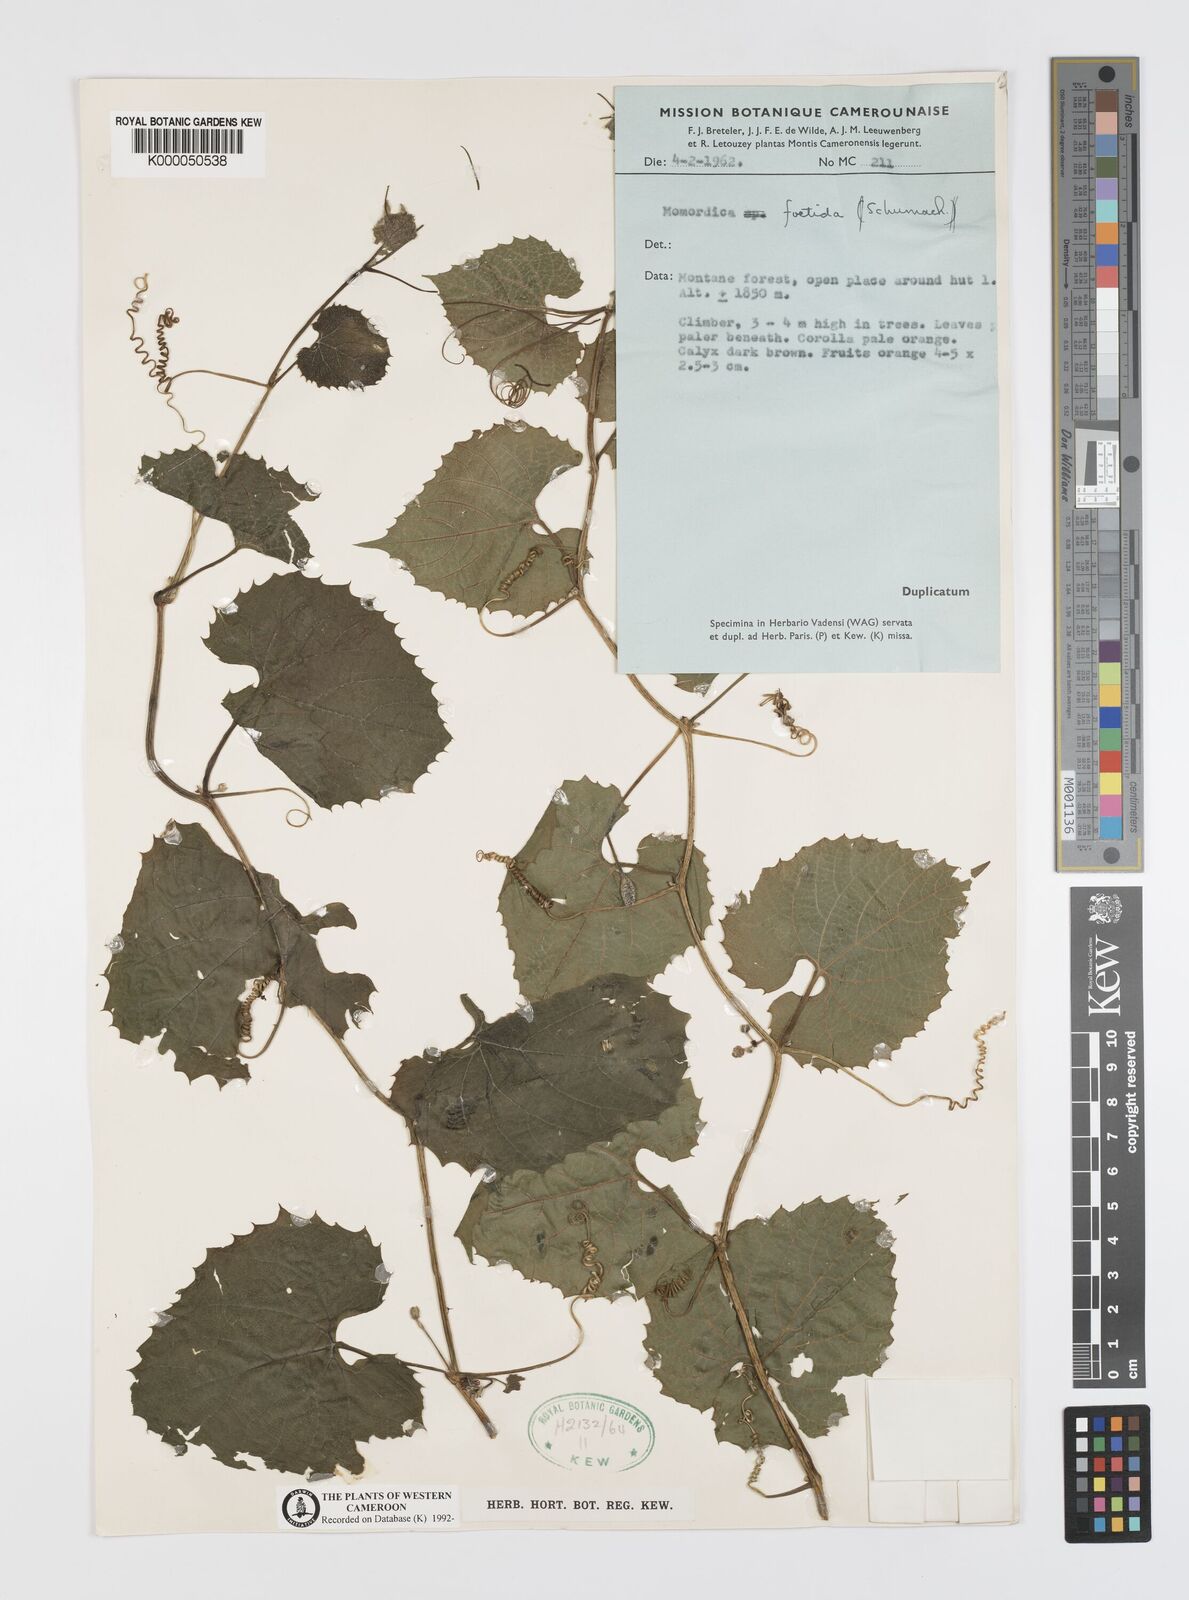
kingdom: Plantae
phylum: Tracheophyta
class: Magnoliopsida
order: Cucurbitales
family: Cucurbitaceae
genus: Momordica
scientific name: Momordica foetida
